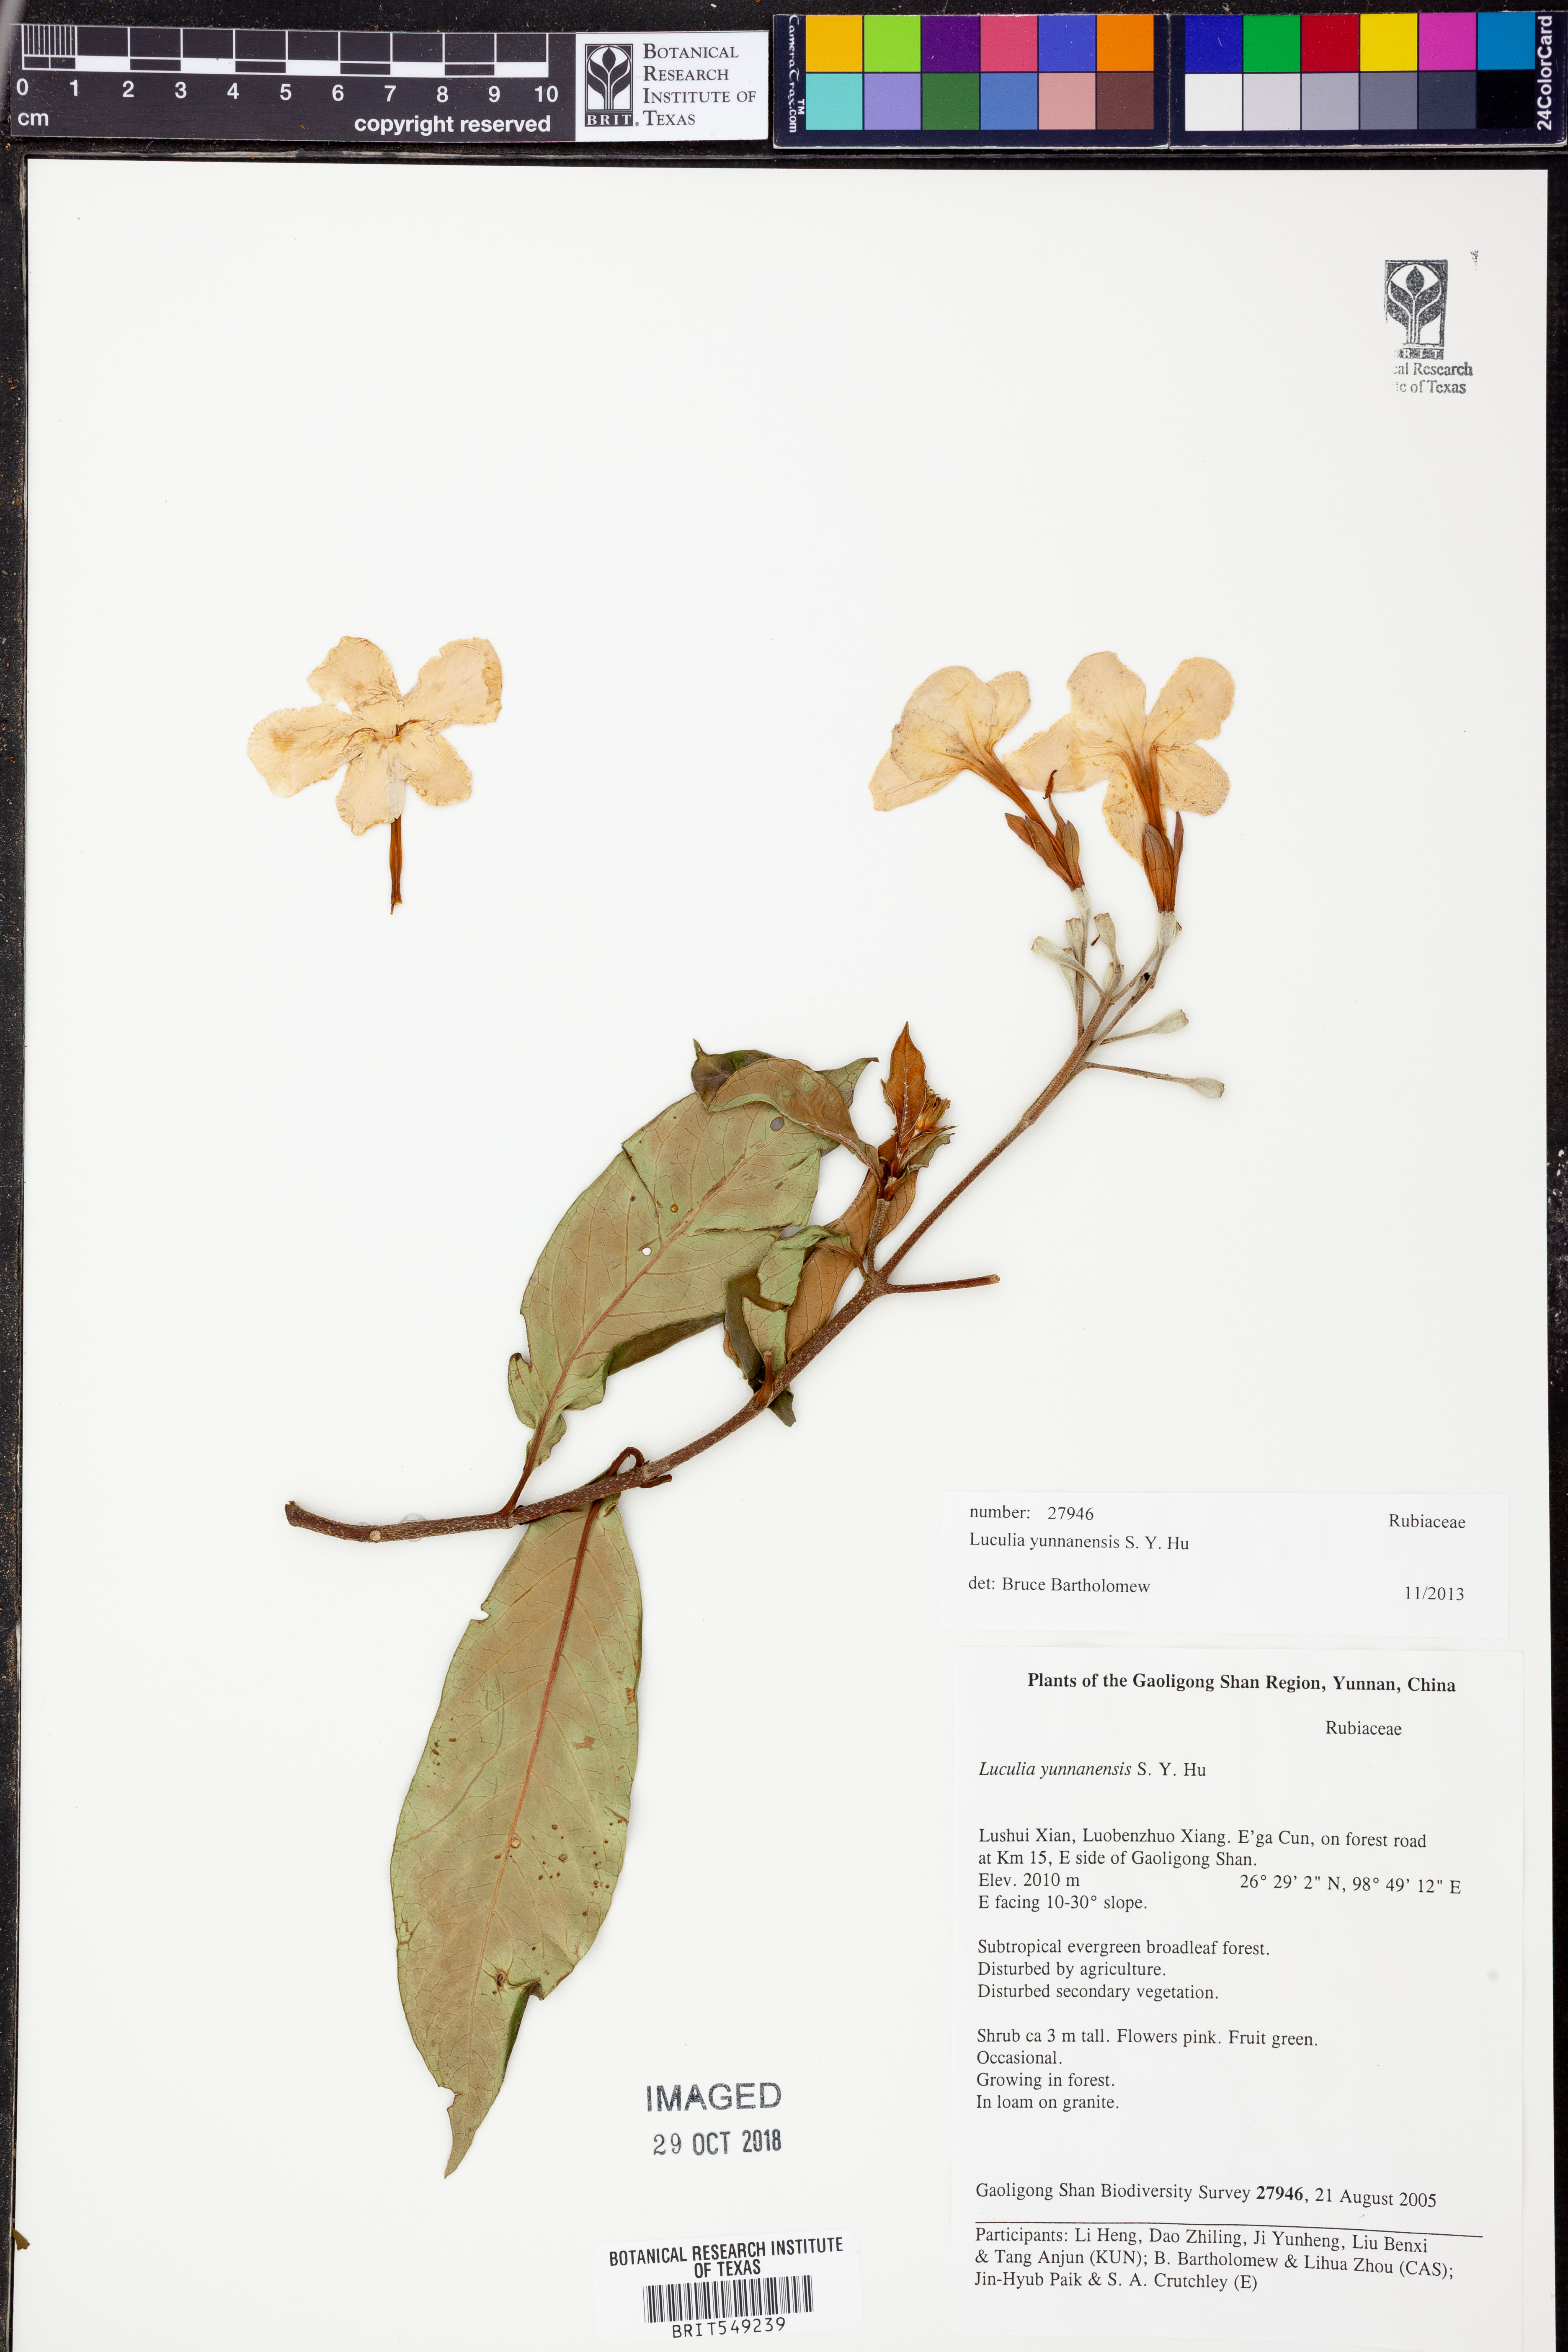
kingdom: Plantae
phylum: Tracheophyta
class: Magnoliopsida
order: Gentianales
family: Rubiaceae
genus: Luculia
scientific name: Luculia yunnanensis
